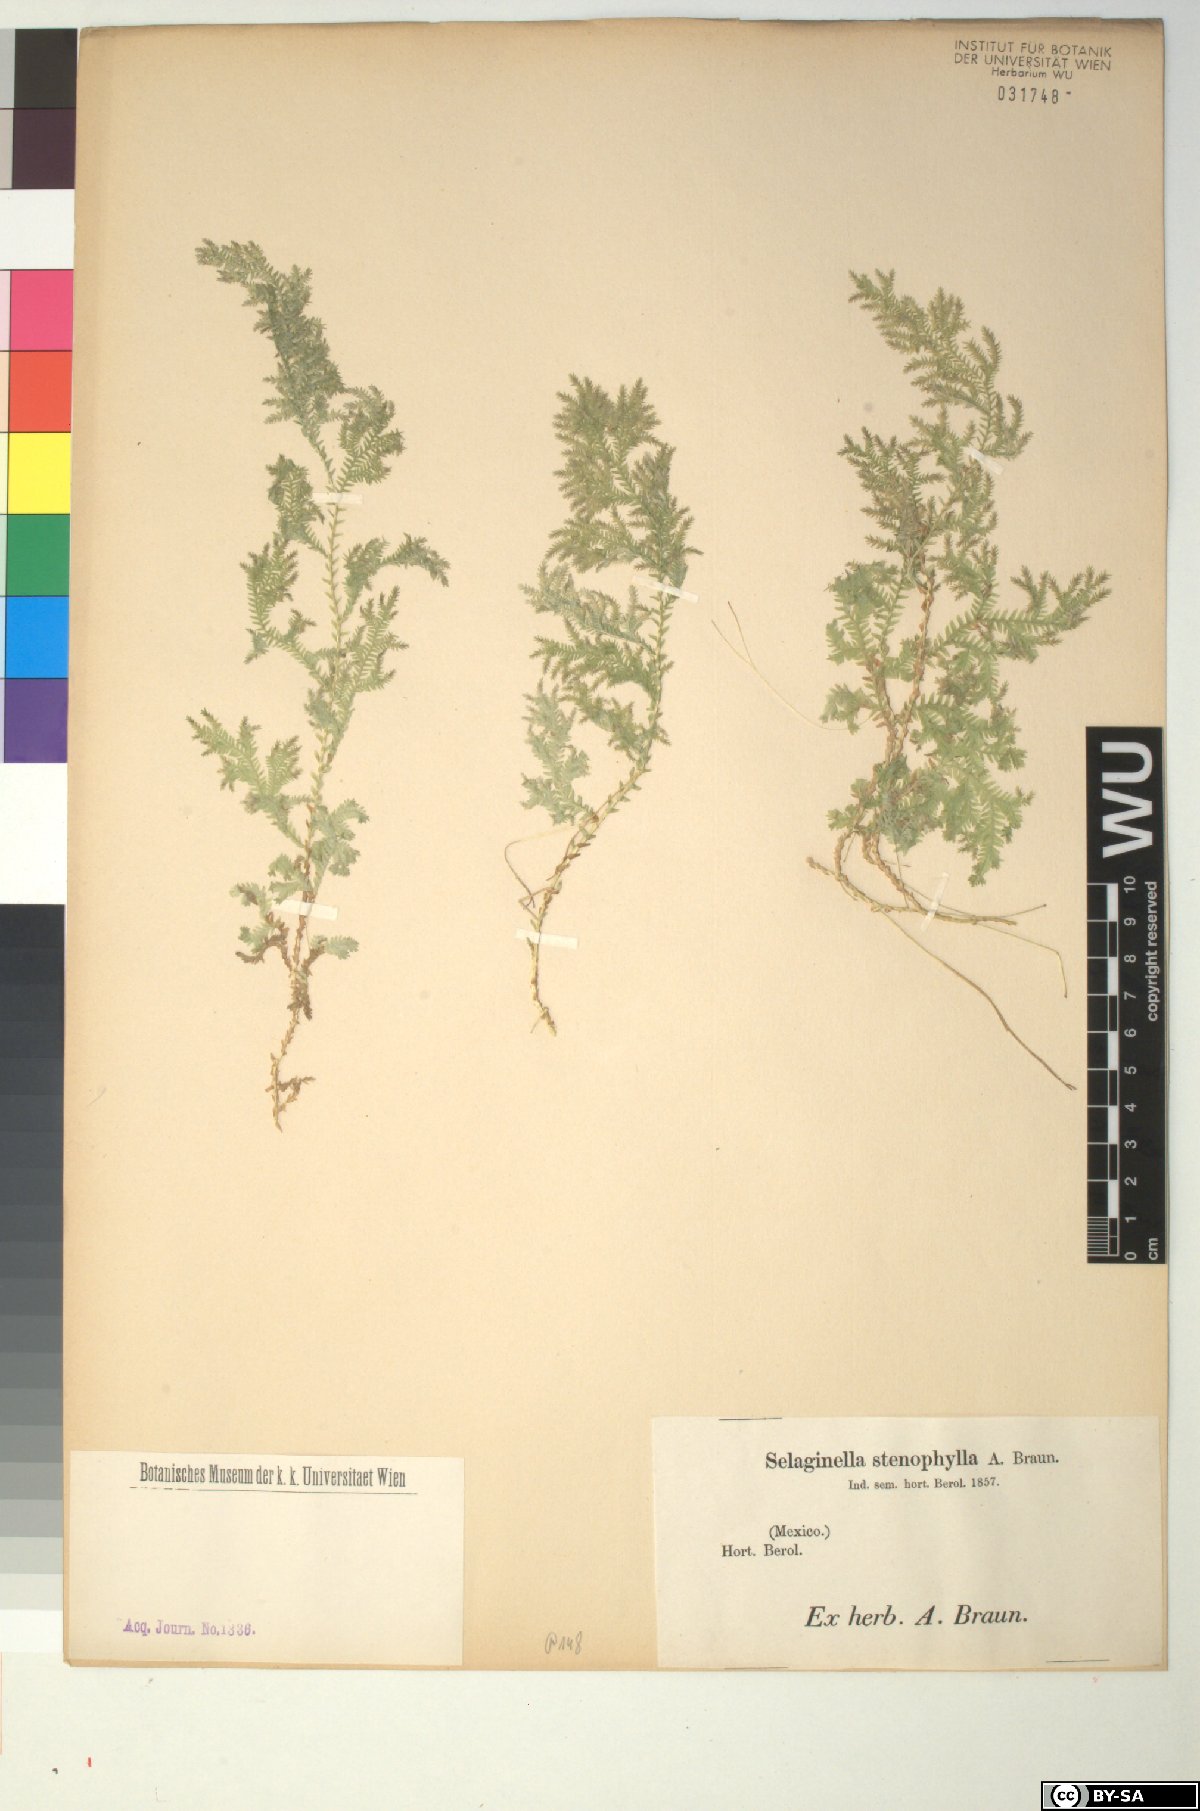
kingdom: Plantae
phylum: Tracheophyta
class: Lycopodiopsida
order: Selaginellales
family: Selaginellaceae
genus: Selaginella
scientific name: Selaginella stenophylla
